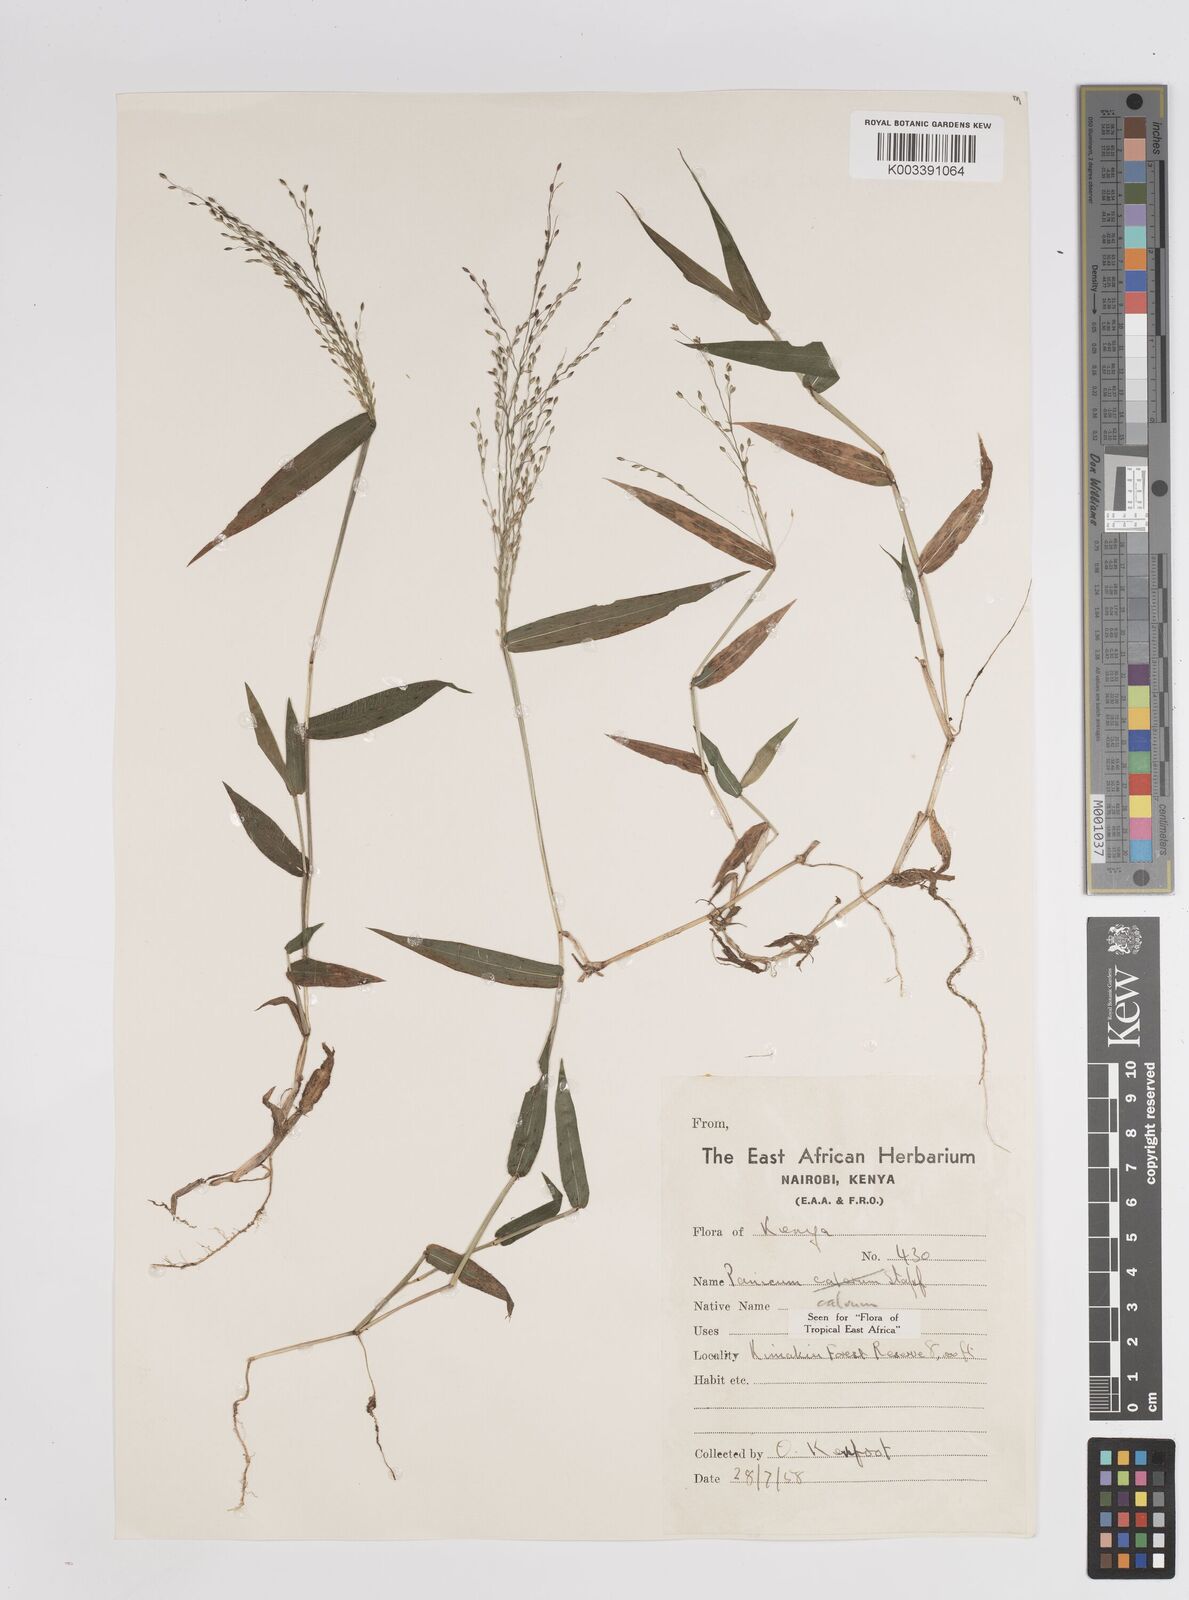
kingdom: Plantae
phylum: Tracheophyta
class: Liliopsida
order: Poales
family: Poaceae
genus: Panicum
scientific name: Panicum calvum
